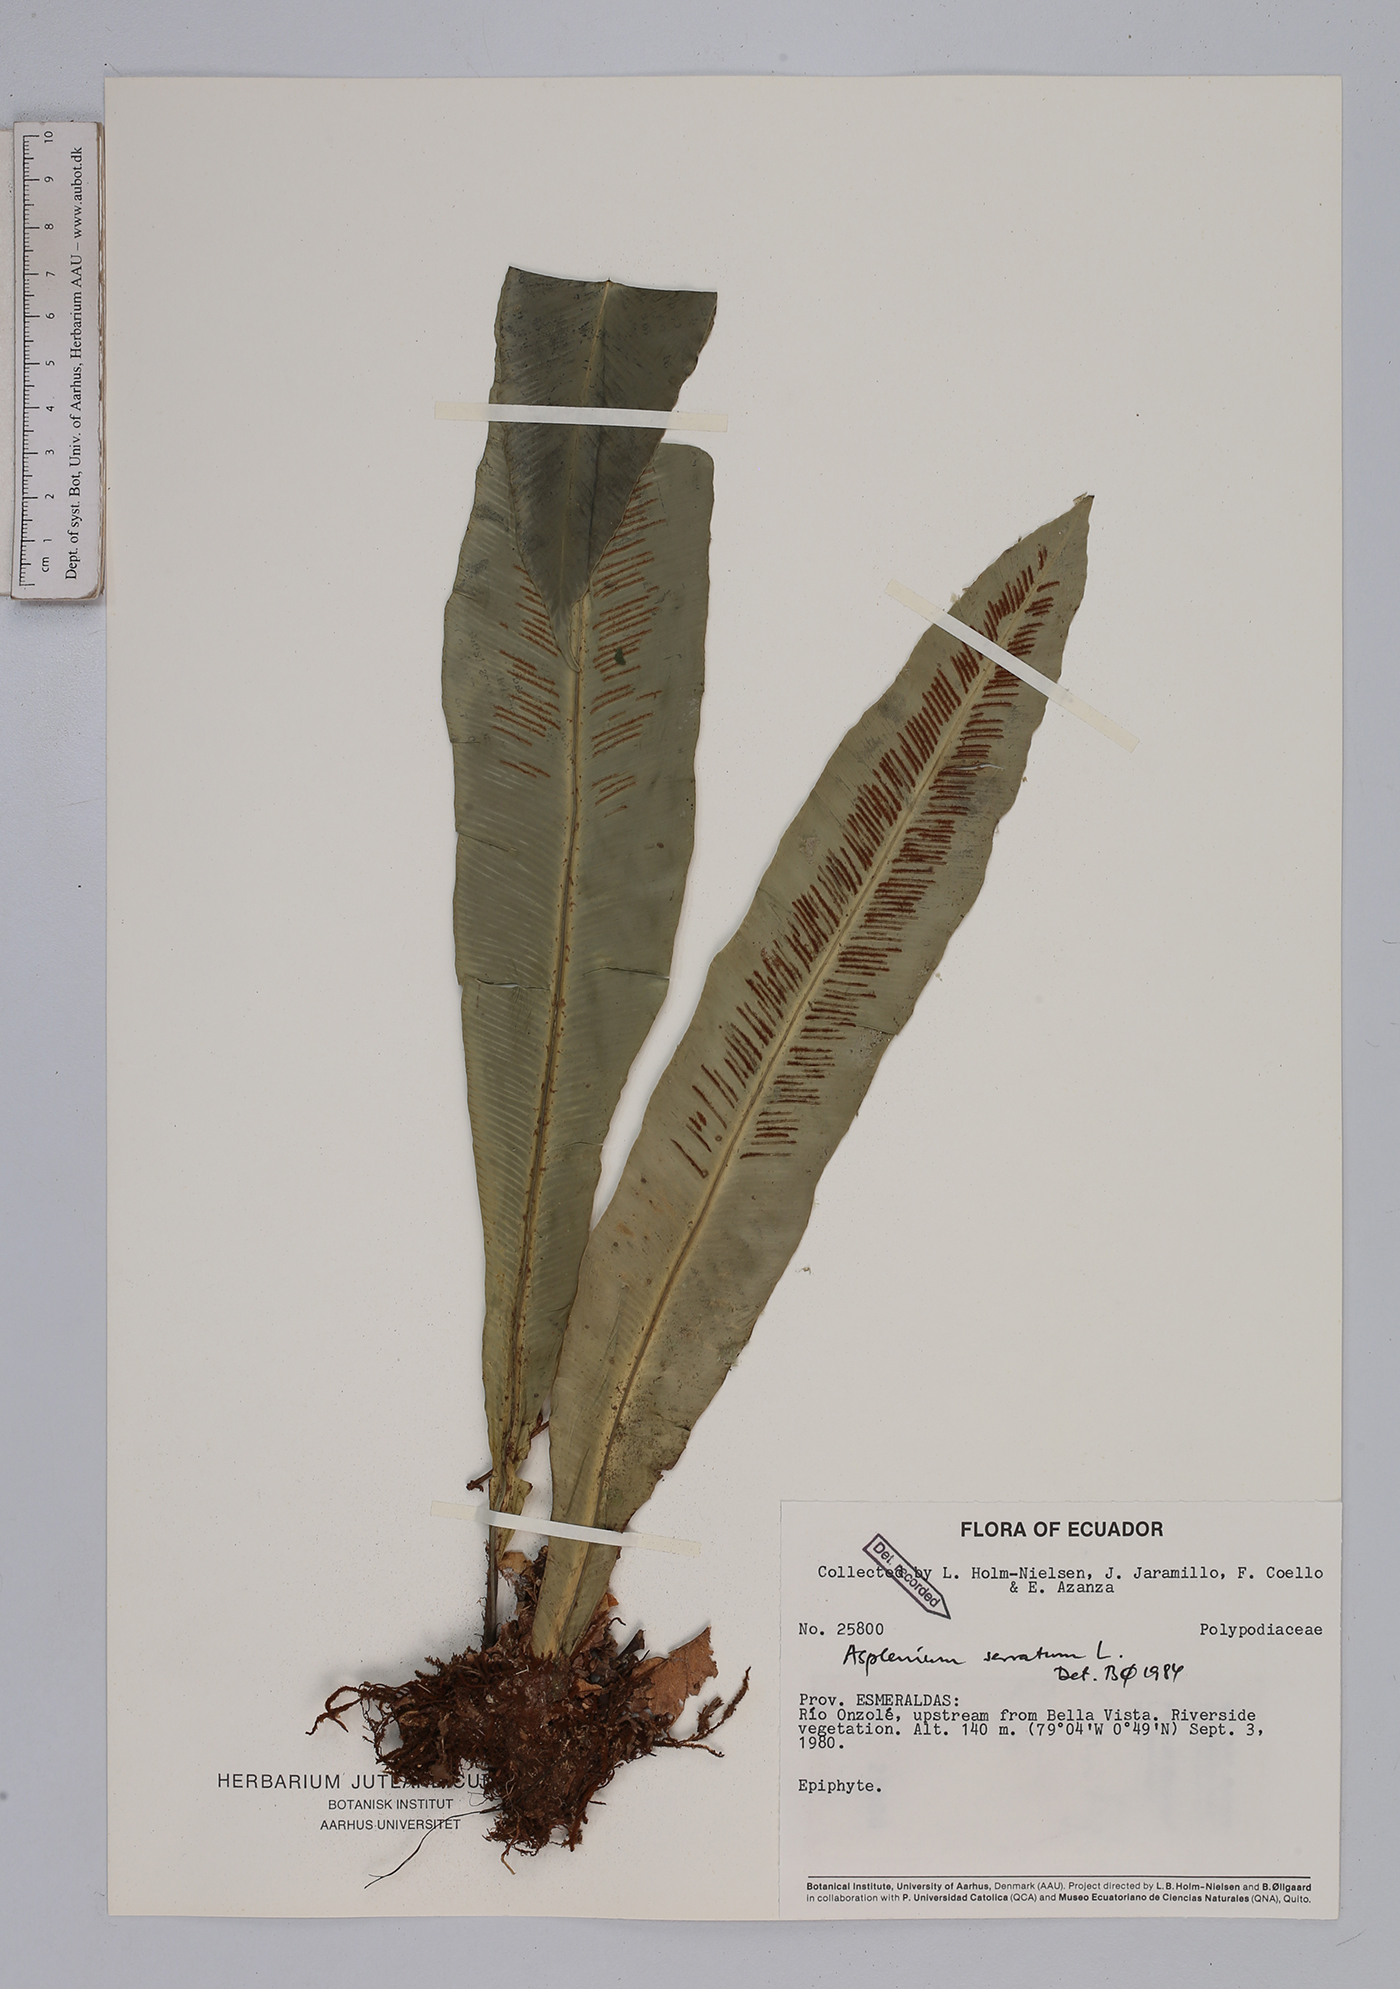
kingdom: Plantae
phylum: Tracheophyta
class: Polypodiopsida
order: Polypodiales
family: Aspleniaceae
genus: Asplenium
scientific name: Asplenium serratum
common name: Wild birdnest fern
